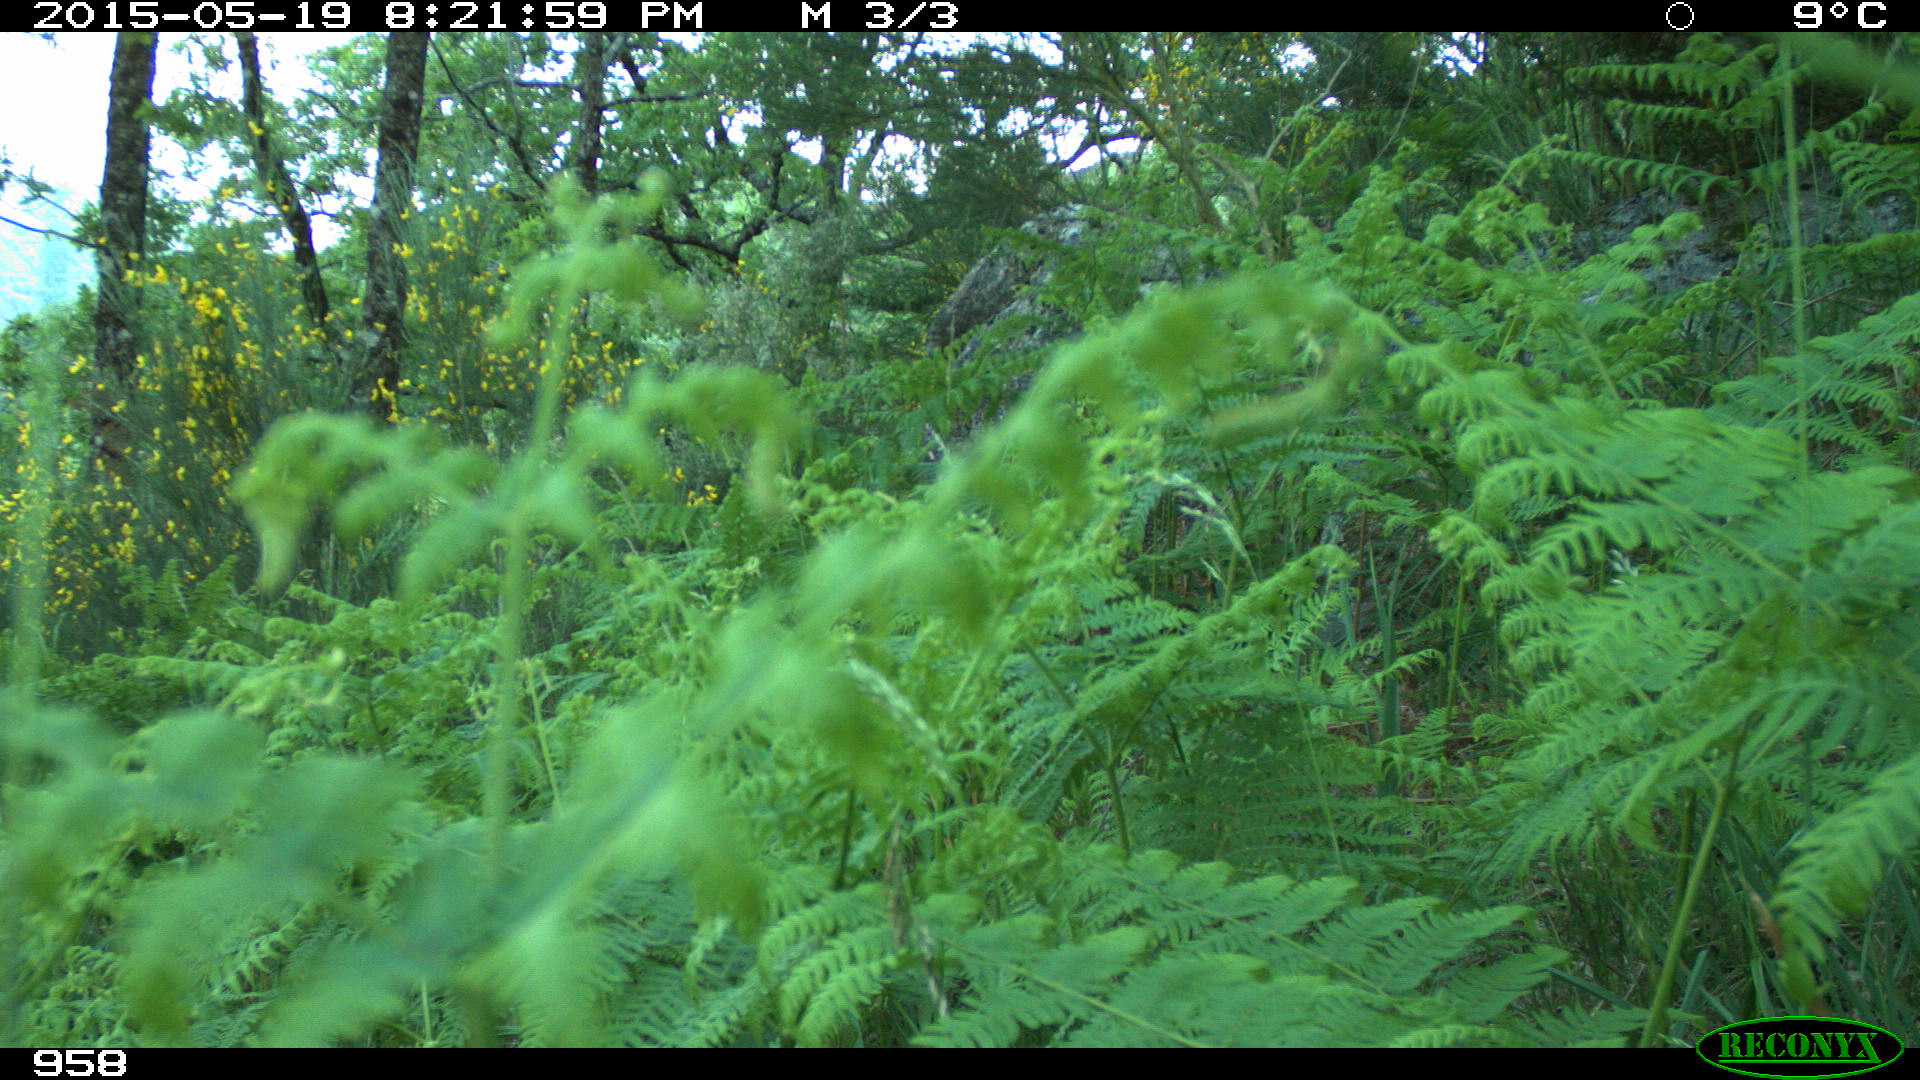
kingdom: Animalia
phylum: Chordata
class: Mammalia
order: Artiodactyla
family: Cervidae
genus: Capreolus
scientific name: Capreolus capreolus
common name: Western roe deer
